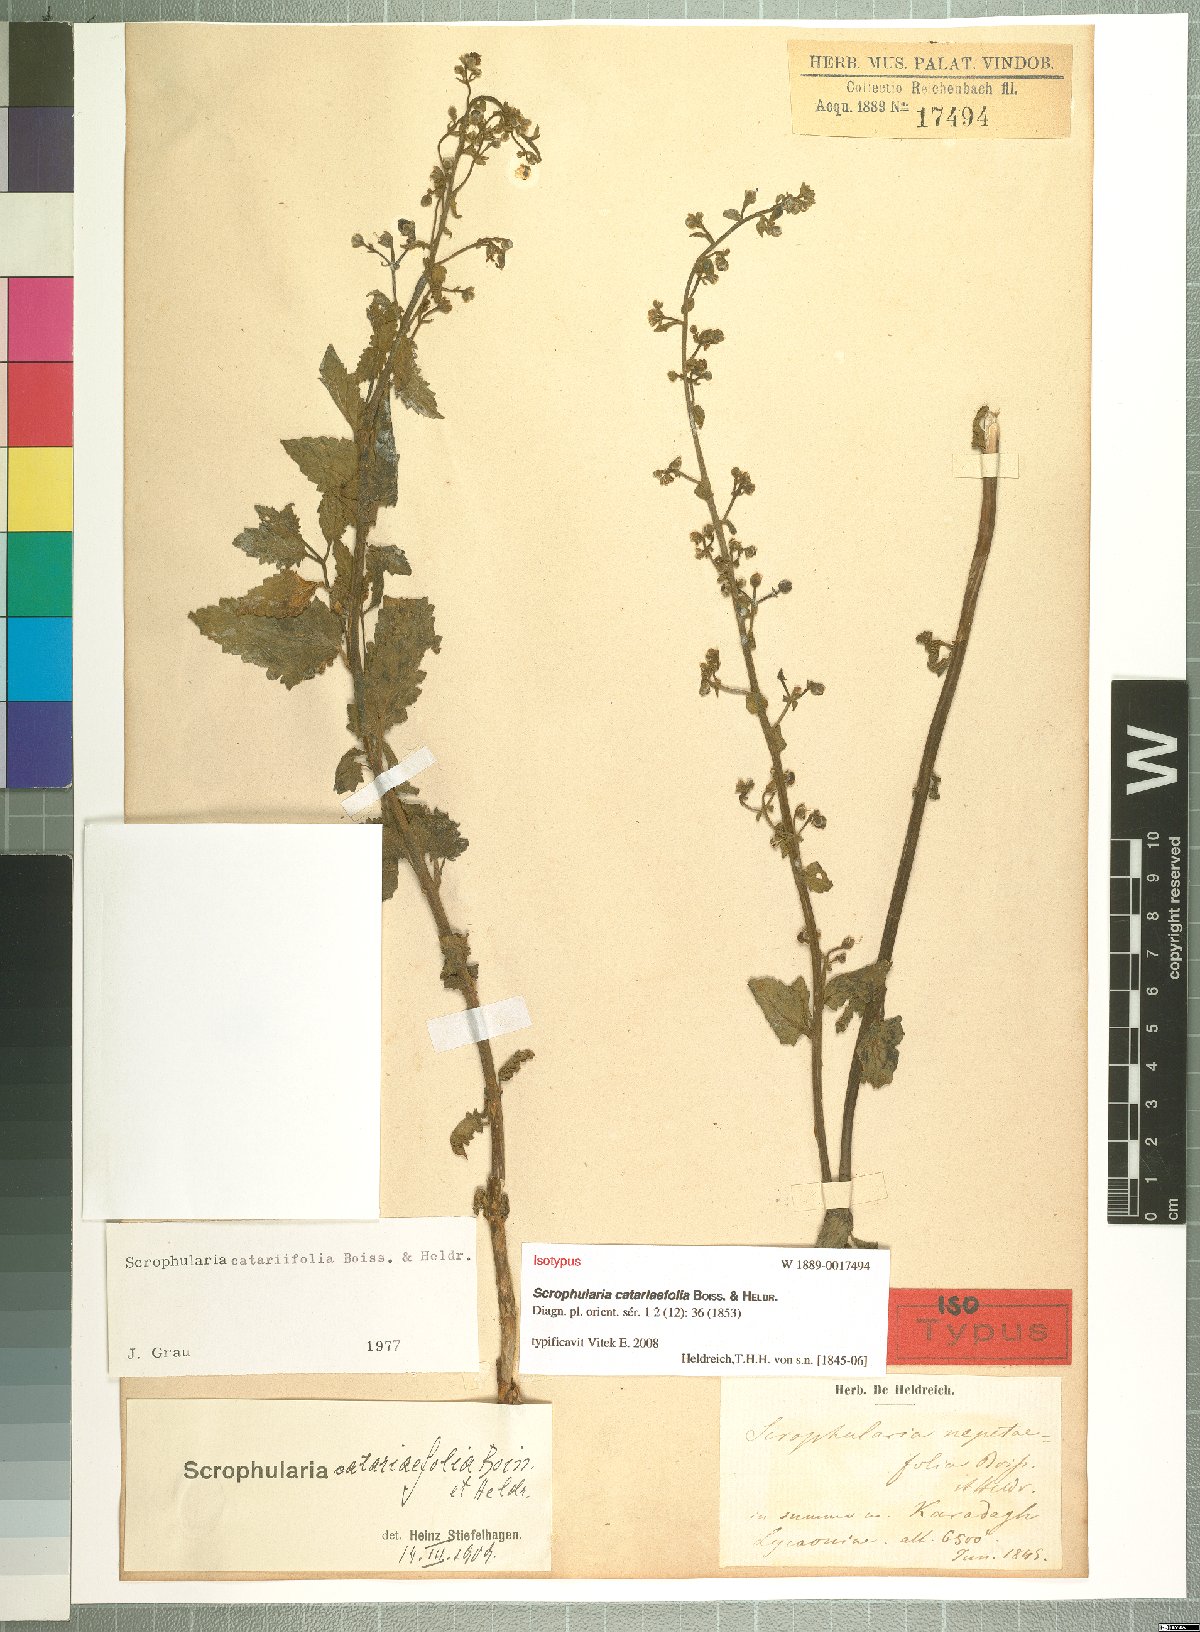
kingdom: Plantae
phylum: Tracheophyta
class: Magnoliopsida
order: Lamiales
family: Scrophulariaceae
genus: Scrophularia
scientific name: Scrophularia catariifolia
